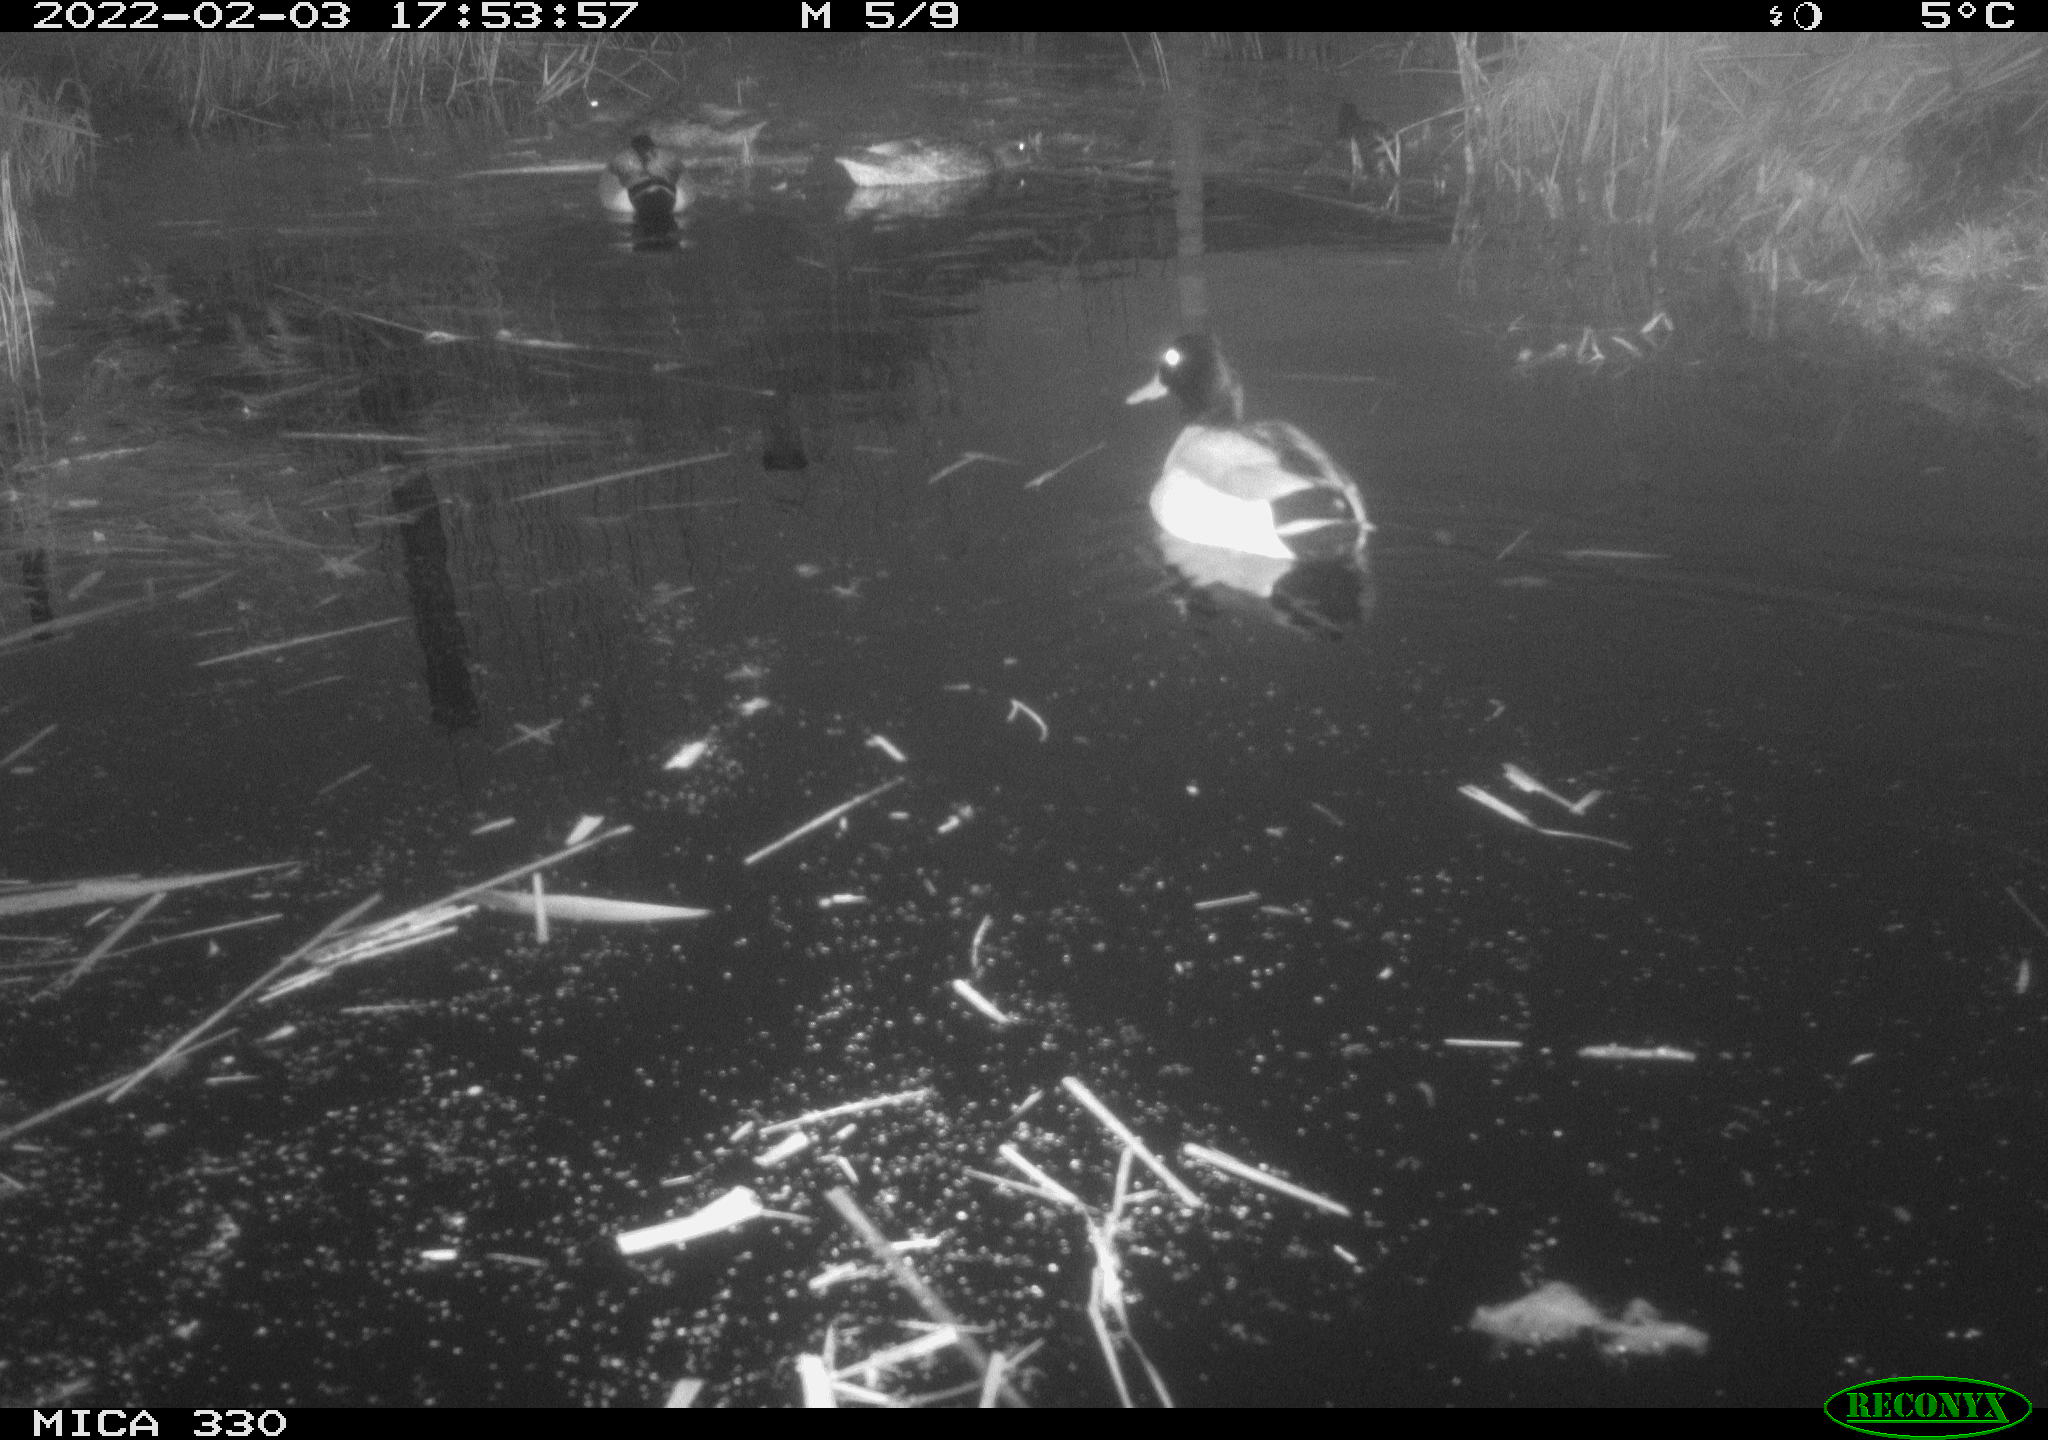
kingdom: Animalia
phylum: Chordata
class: Aves
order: Anseriformes
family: Anatidae
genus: Anas
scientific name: Anas platyrhynchos
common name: Mallard
